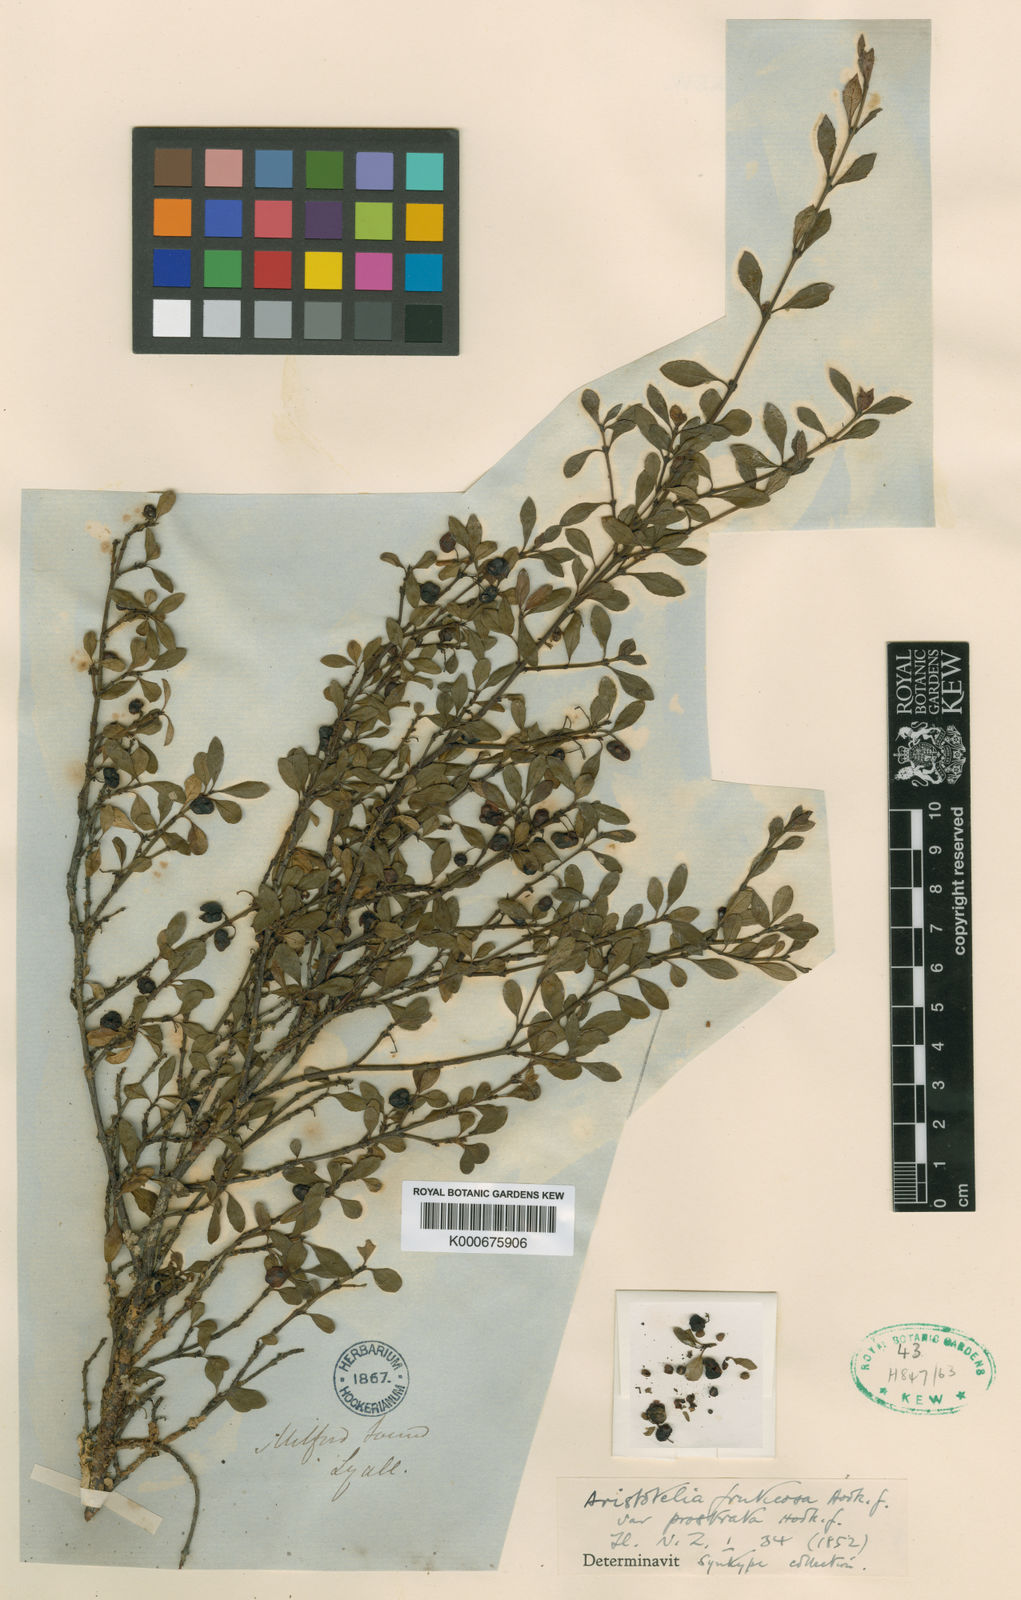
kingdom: Plantae
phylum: Tracheophyta
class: Magnoliopsida
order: Oxalidales
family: Elaeocarpaceae
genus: Aristotelia
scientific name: Aristotelia fruticosa
